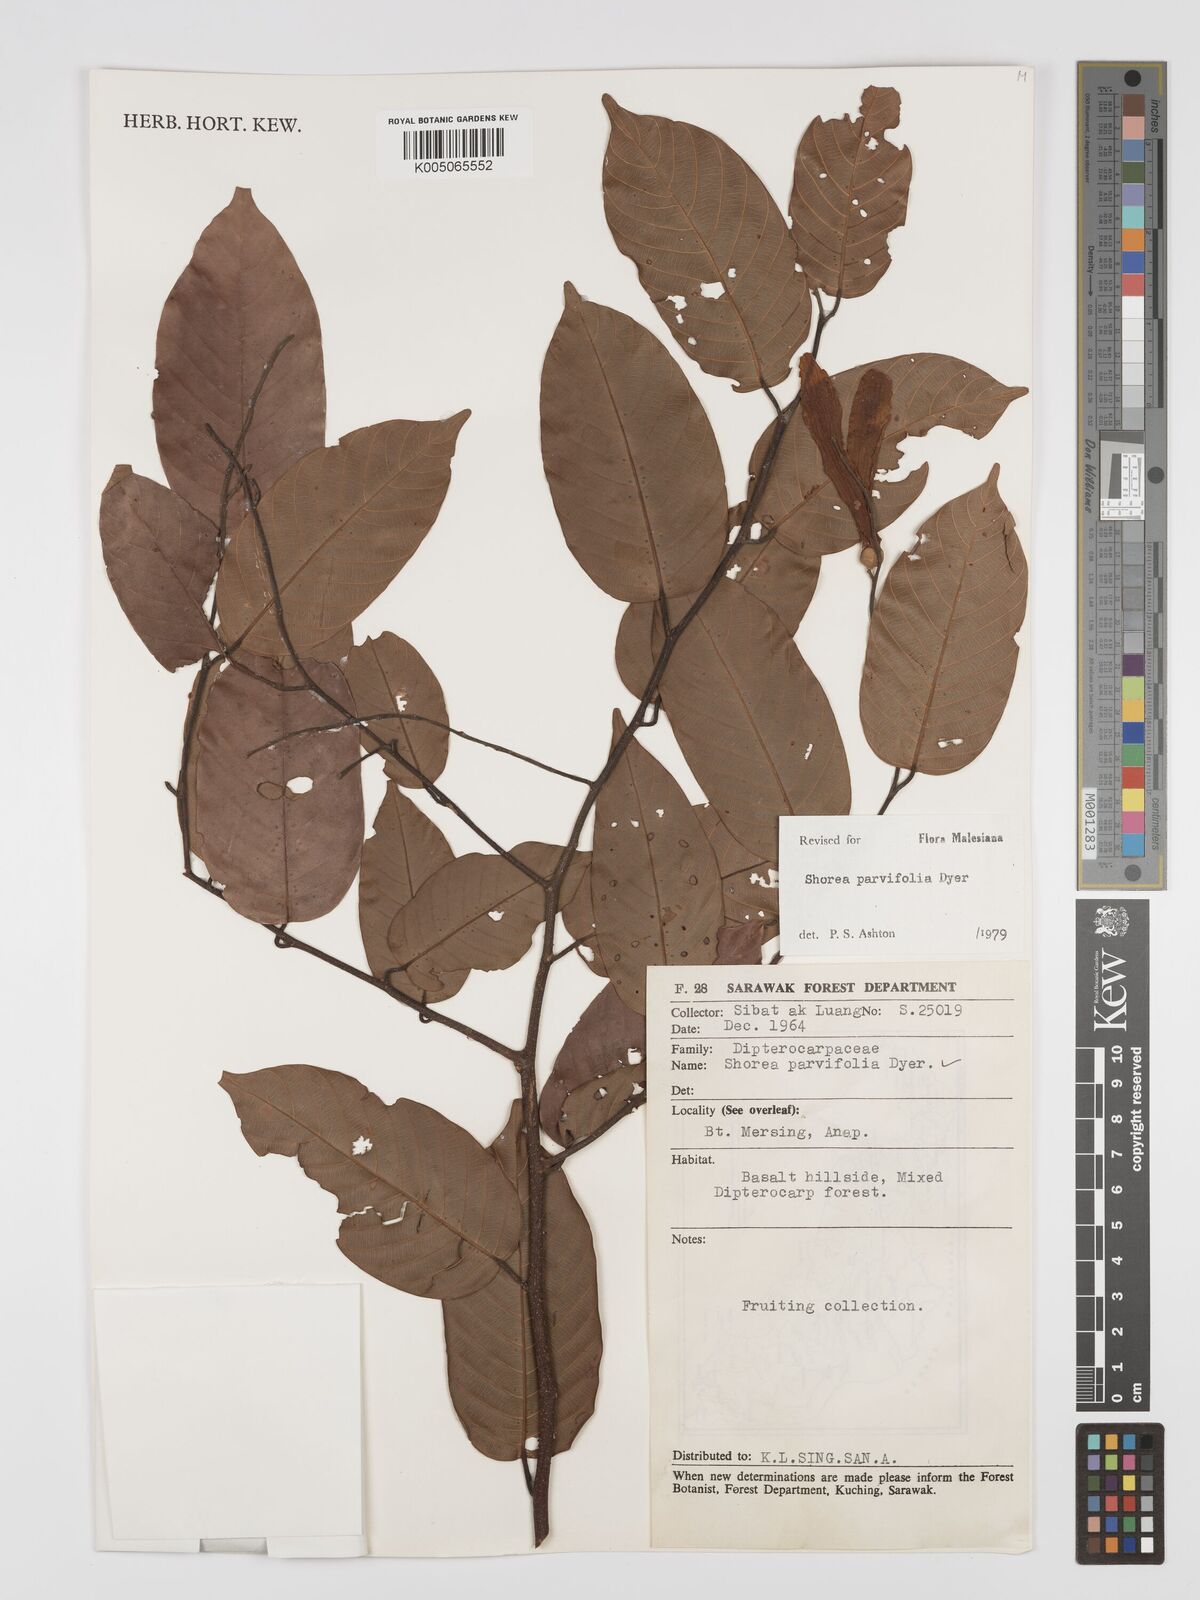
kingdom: Plantae
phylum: Tracheophyta
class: Magnoliopsida
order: Malvales
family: Dipterocarpaceae
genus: Shorea
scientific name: Shorea parvifolia
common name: Light red meranti
